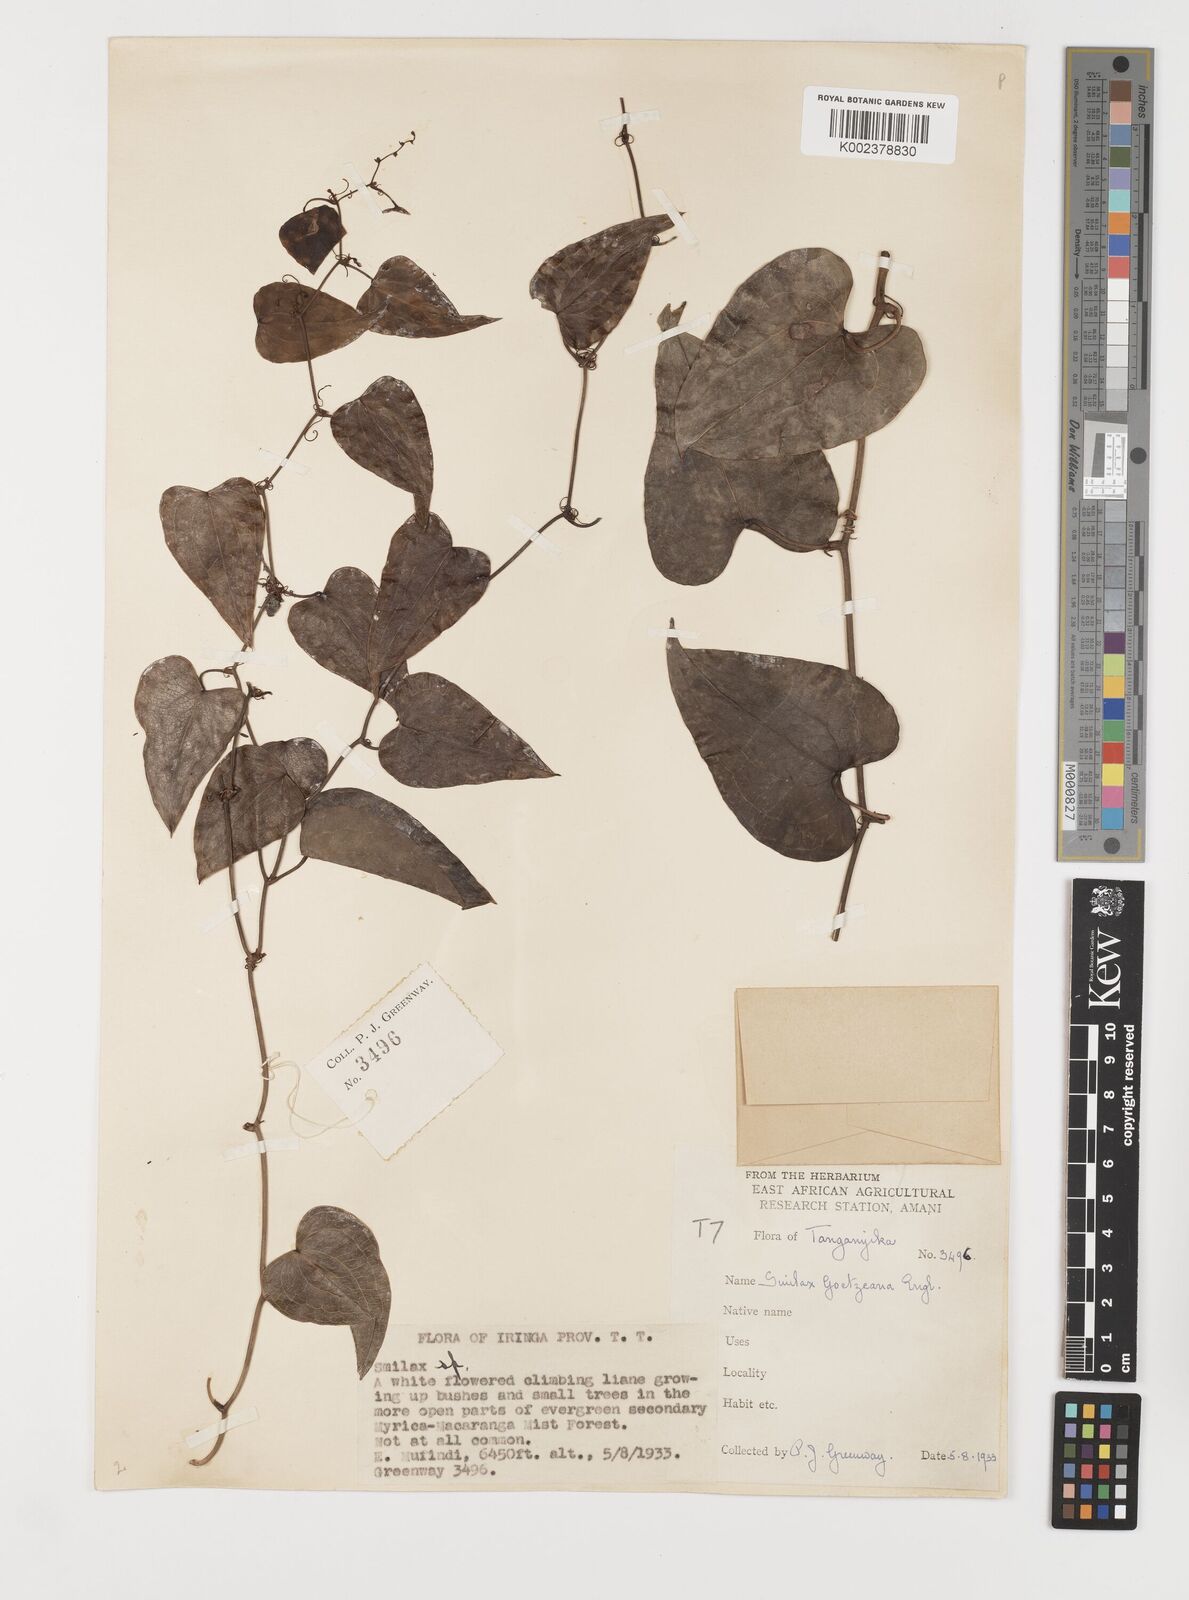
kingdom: Plantae
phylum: Tracheophyta
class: Liliopsida
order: Liliales
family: Smilacaceae
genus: Smilax
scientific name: Smilax aspera
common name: Common smilax
